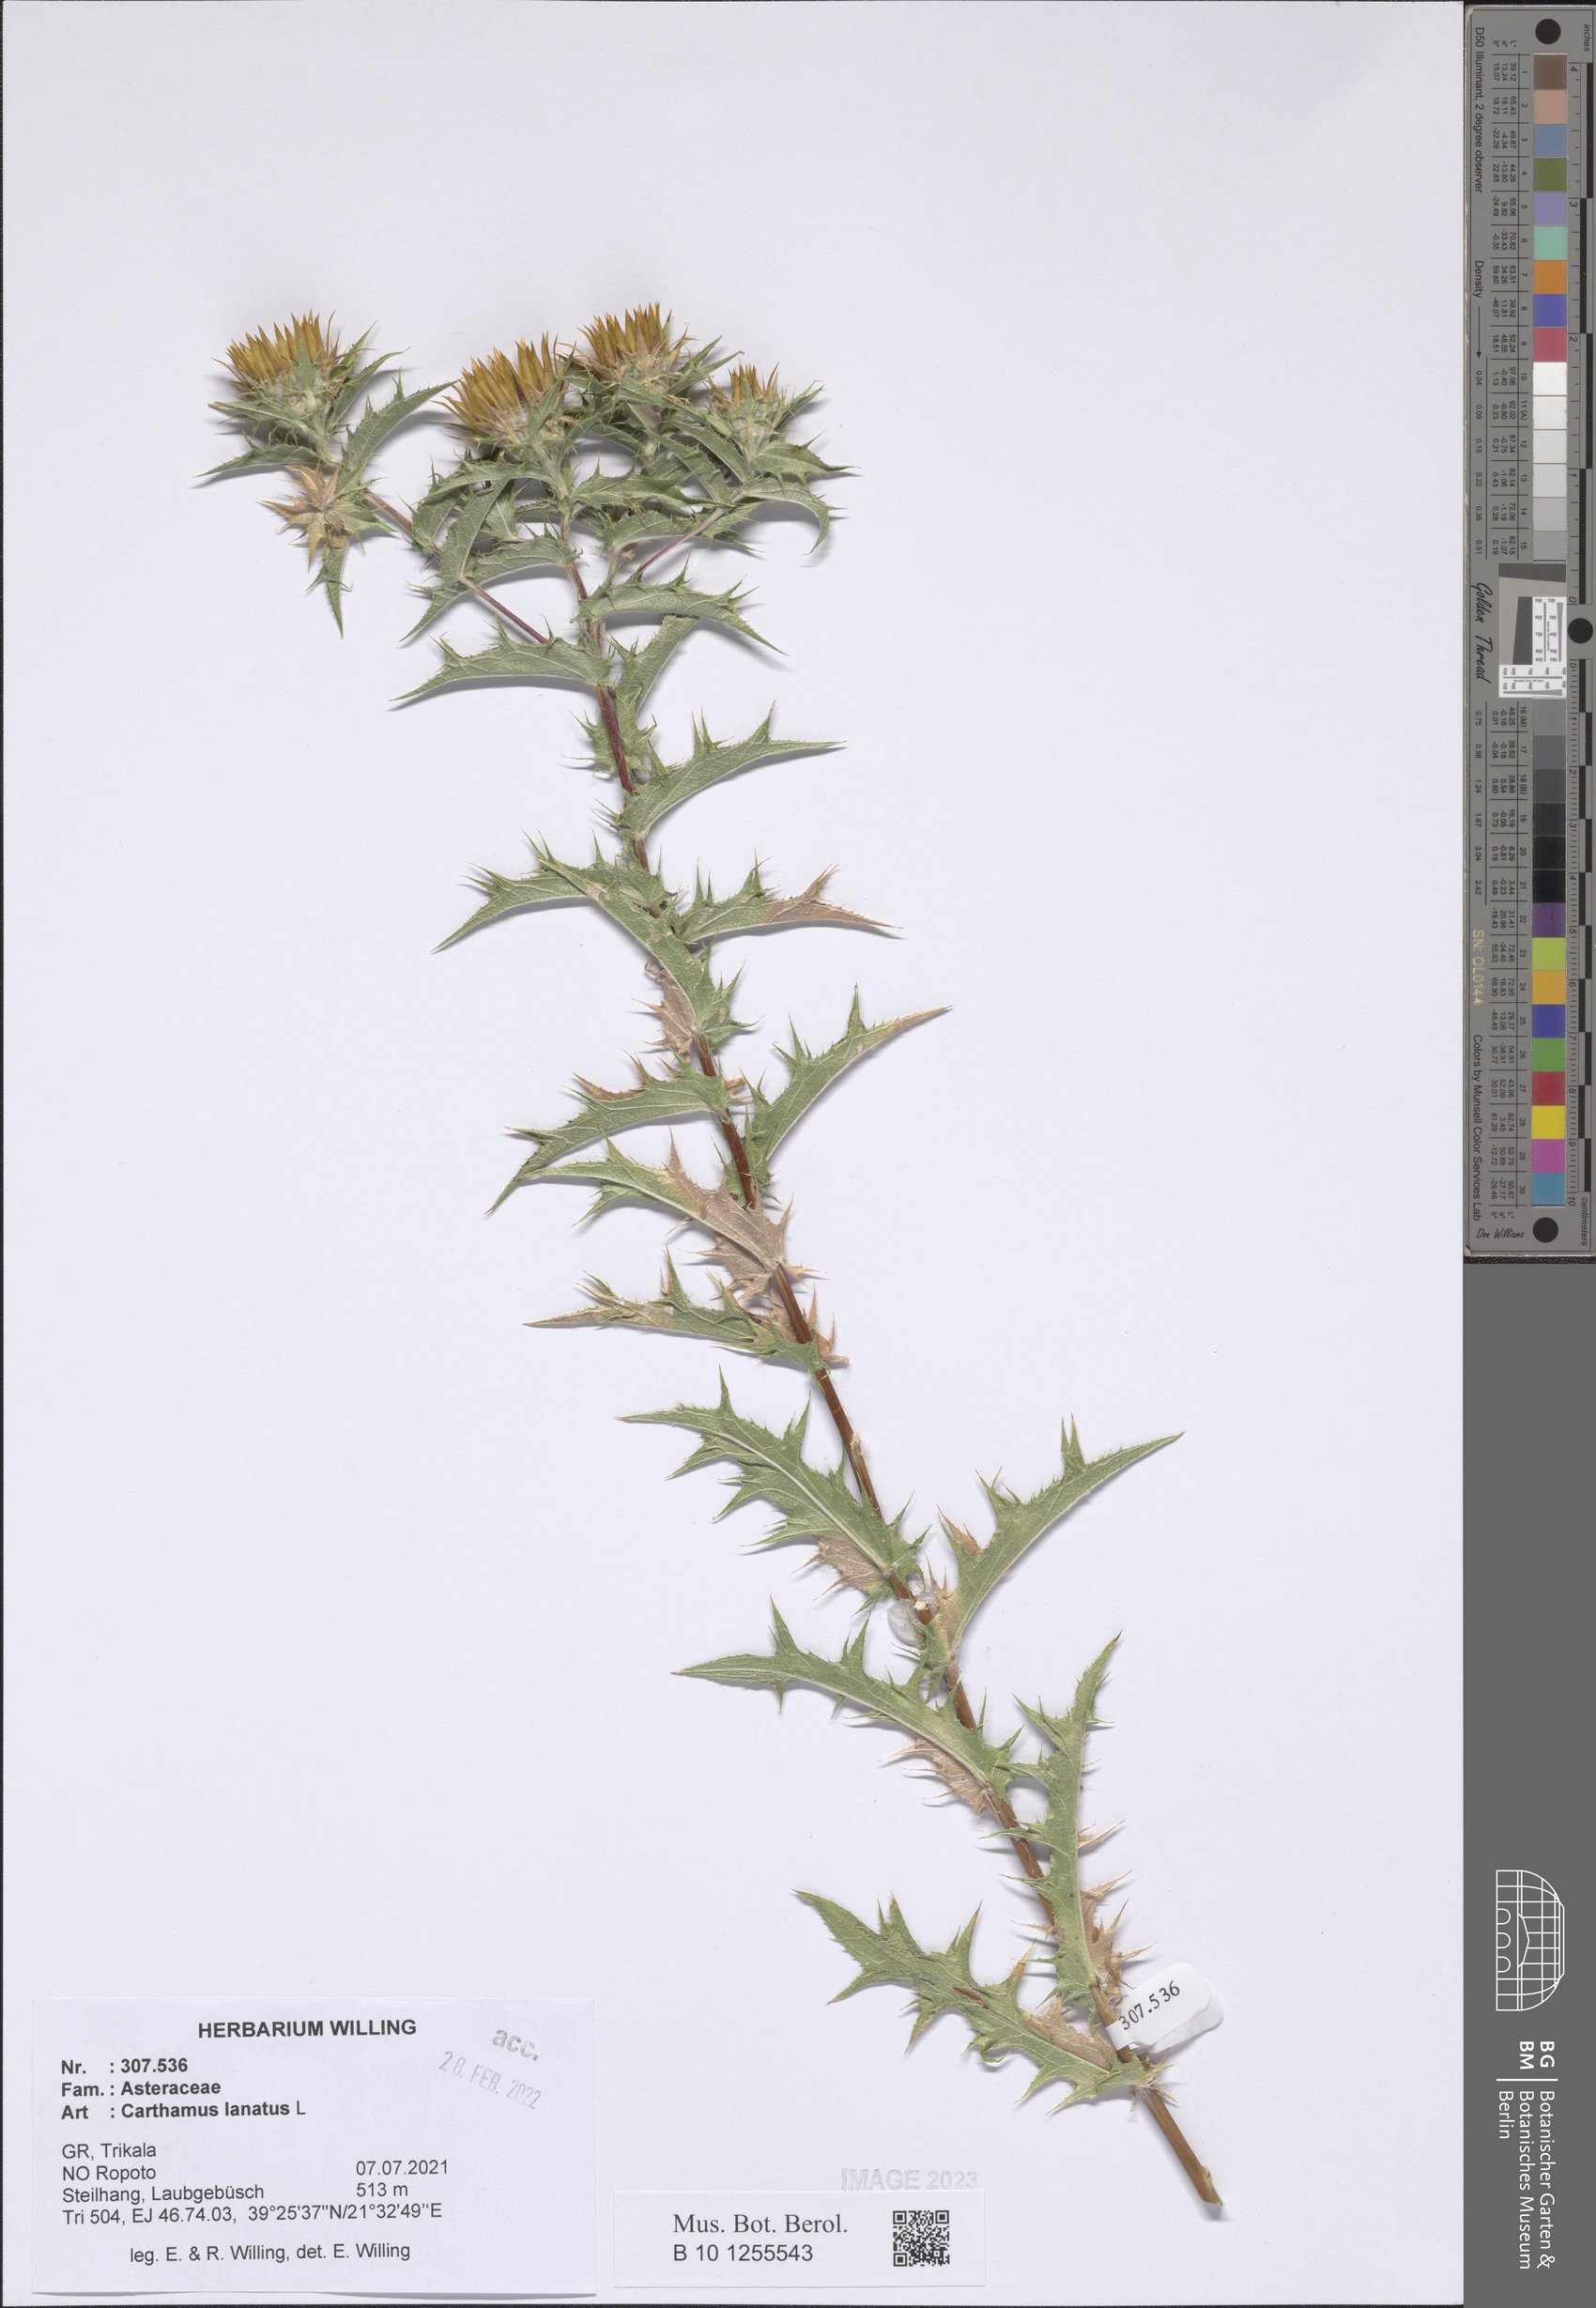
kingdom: Plantae
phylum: Tracheophyta
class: Magnoliopsida
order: Asterales
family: Asteraceae
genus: Carthamus
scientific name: Carthamus lanatus
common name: Downy safflower
